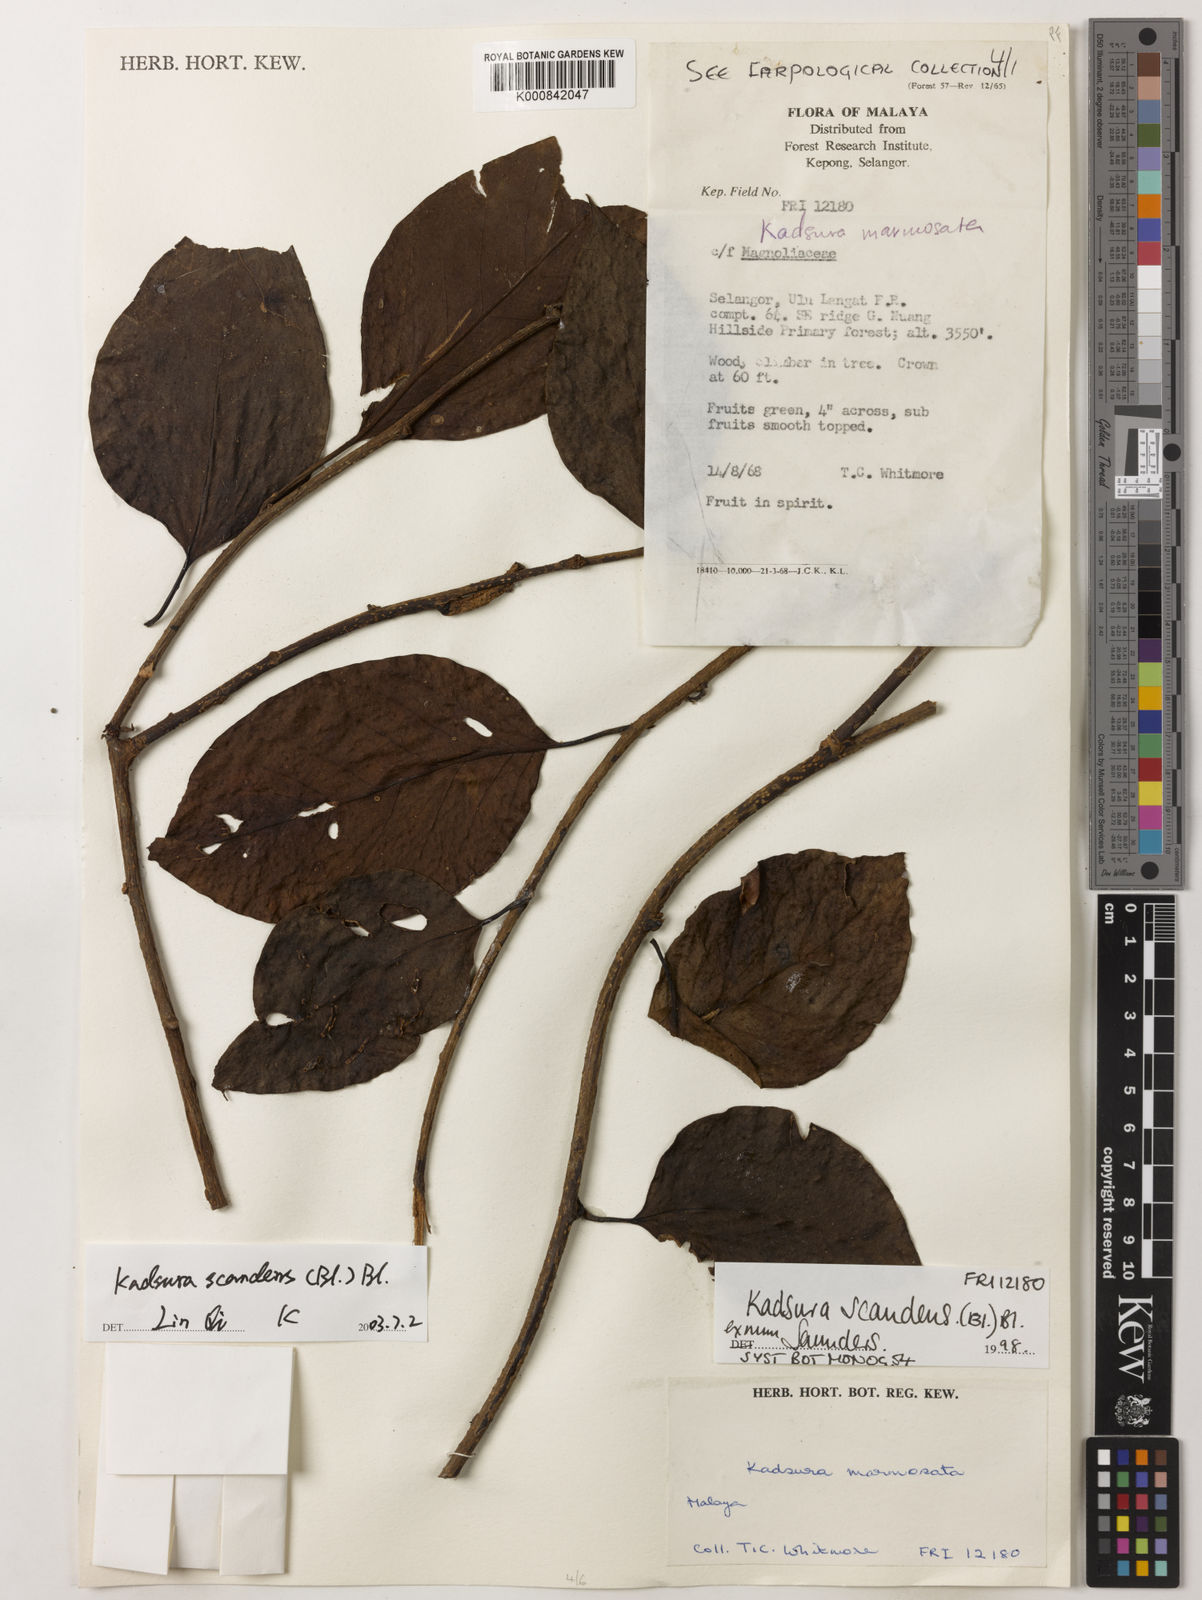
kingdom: Plantae
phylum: Tracheophyta
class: Magnoliopsida
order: Austrobaileyales
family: Schisandraceae
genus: Kadsura
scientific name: Kadsura scandens
